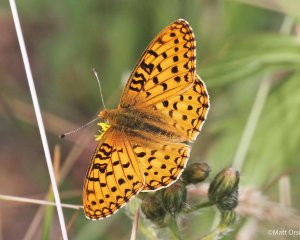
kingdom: Animalia
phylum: Arthropoda
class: Insecta
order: Lepidoptera
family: Nymphalidae
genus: Speyeria
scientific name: Speyeria mormonia
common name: Mormon Fritillary
